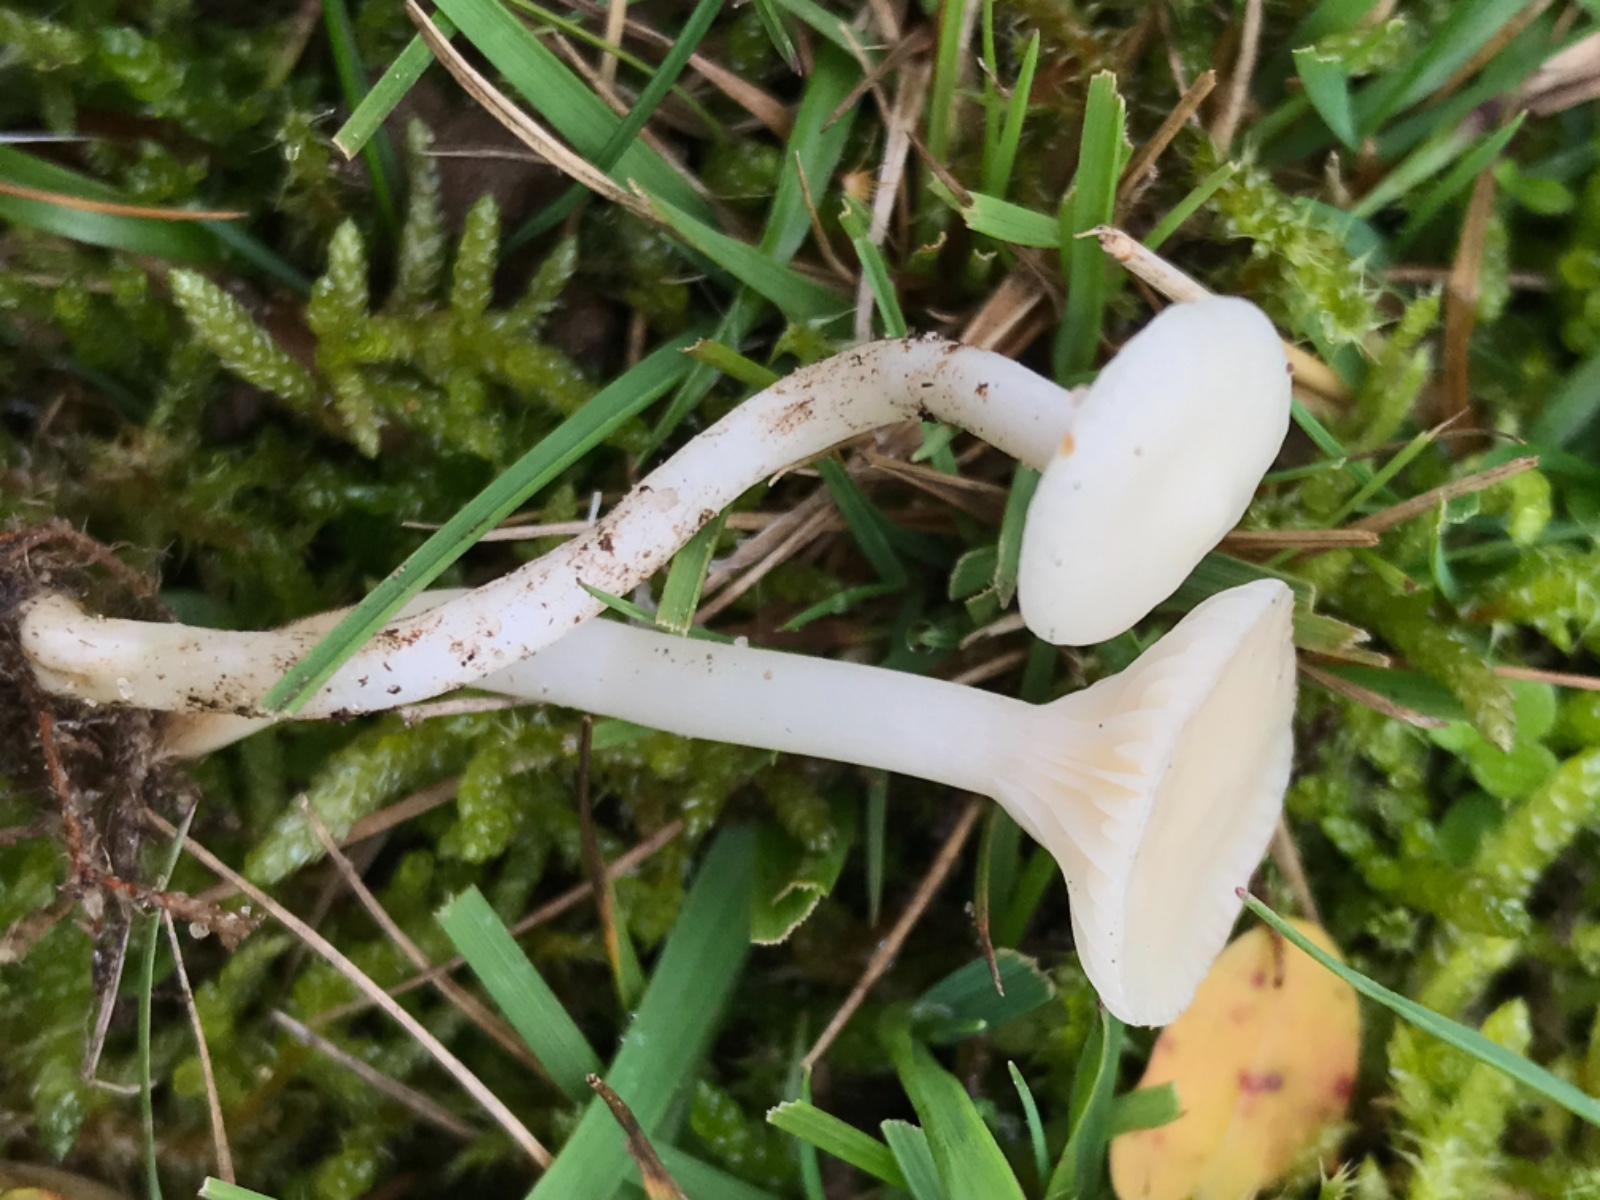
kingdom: Fungi
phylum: Basidiomycota
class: Agaricomycetes
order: Agaricales
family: Hygrophoraceae
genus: Cuphophyllus
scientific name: Cuphophyllus russocoriaceus
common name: ruslæder-vokshat
